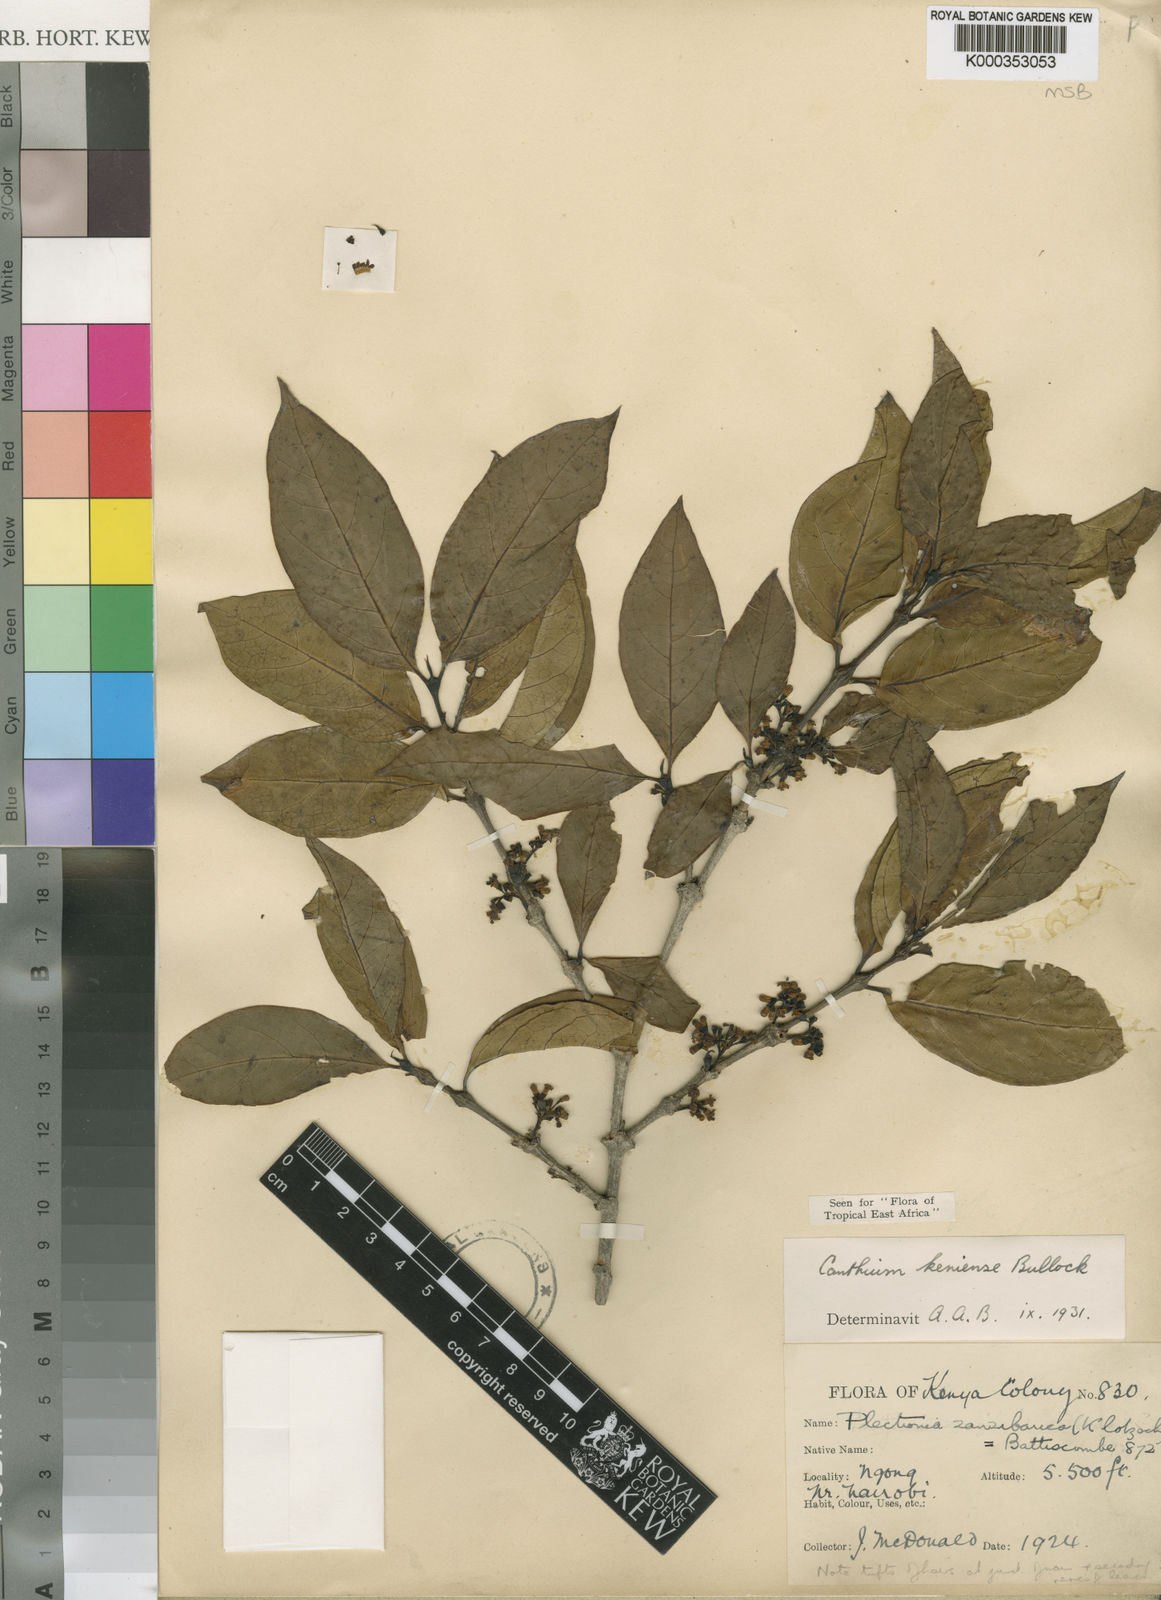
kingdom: Plantae
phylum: Tracheophyta
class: Magnoliopsida
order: Gentianales
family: Rubiaceae
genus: Afrocanthium
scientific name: Afrocanthium keniense
